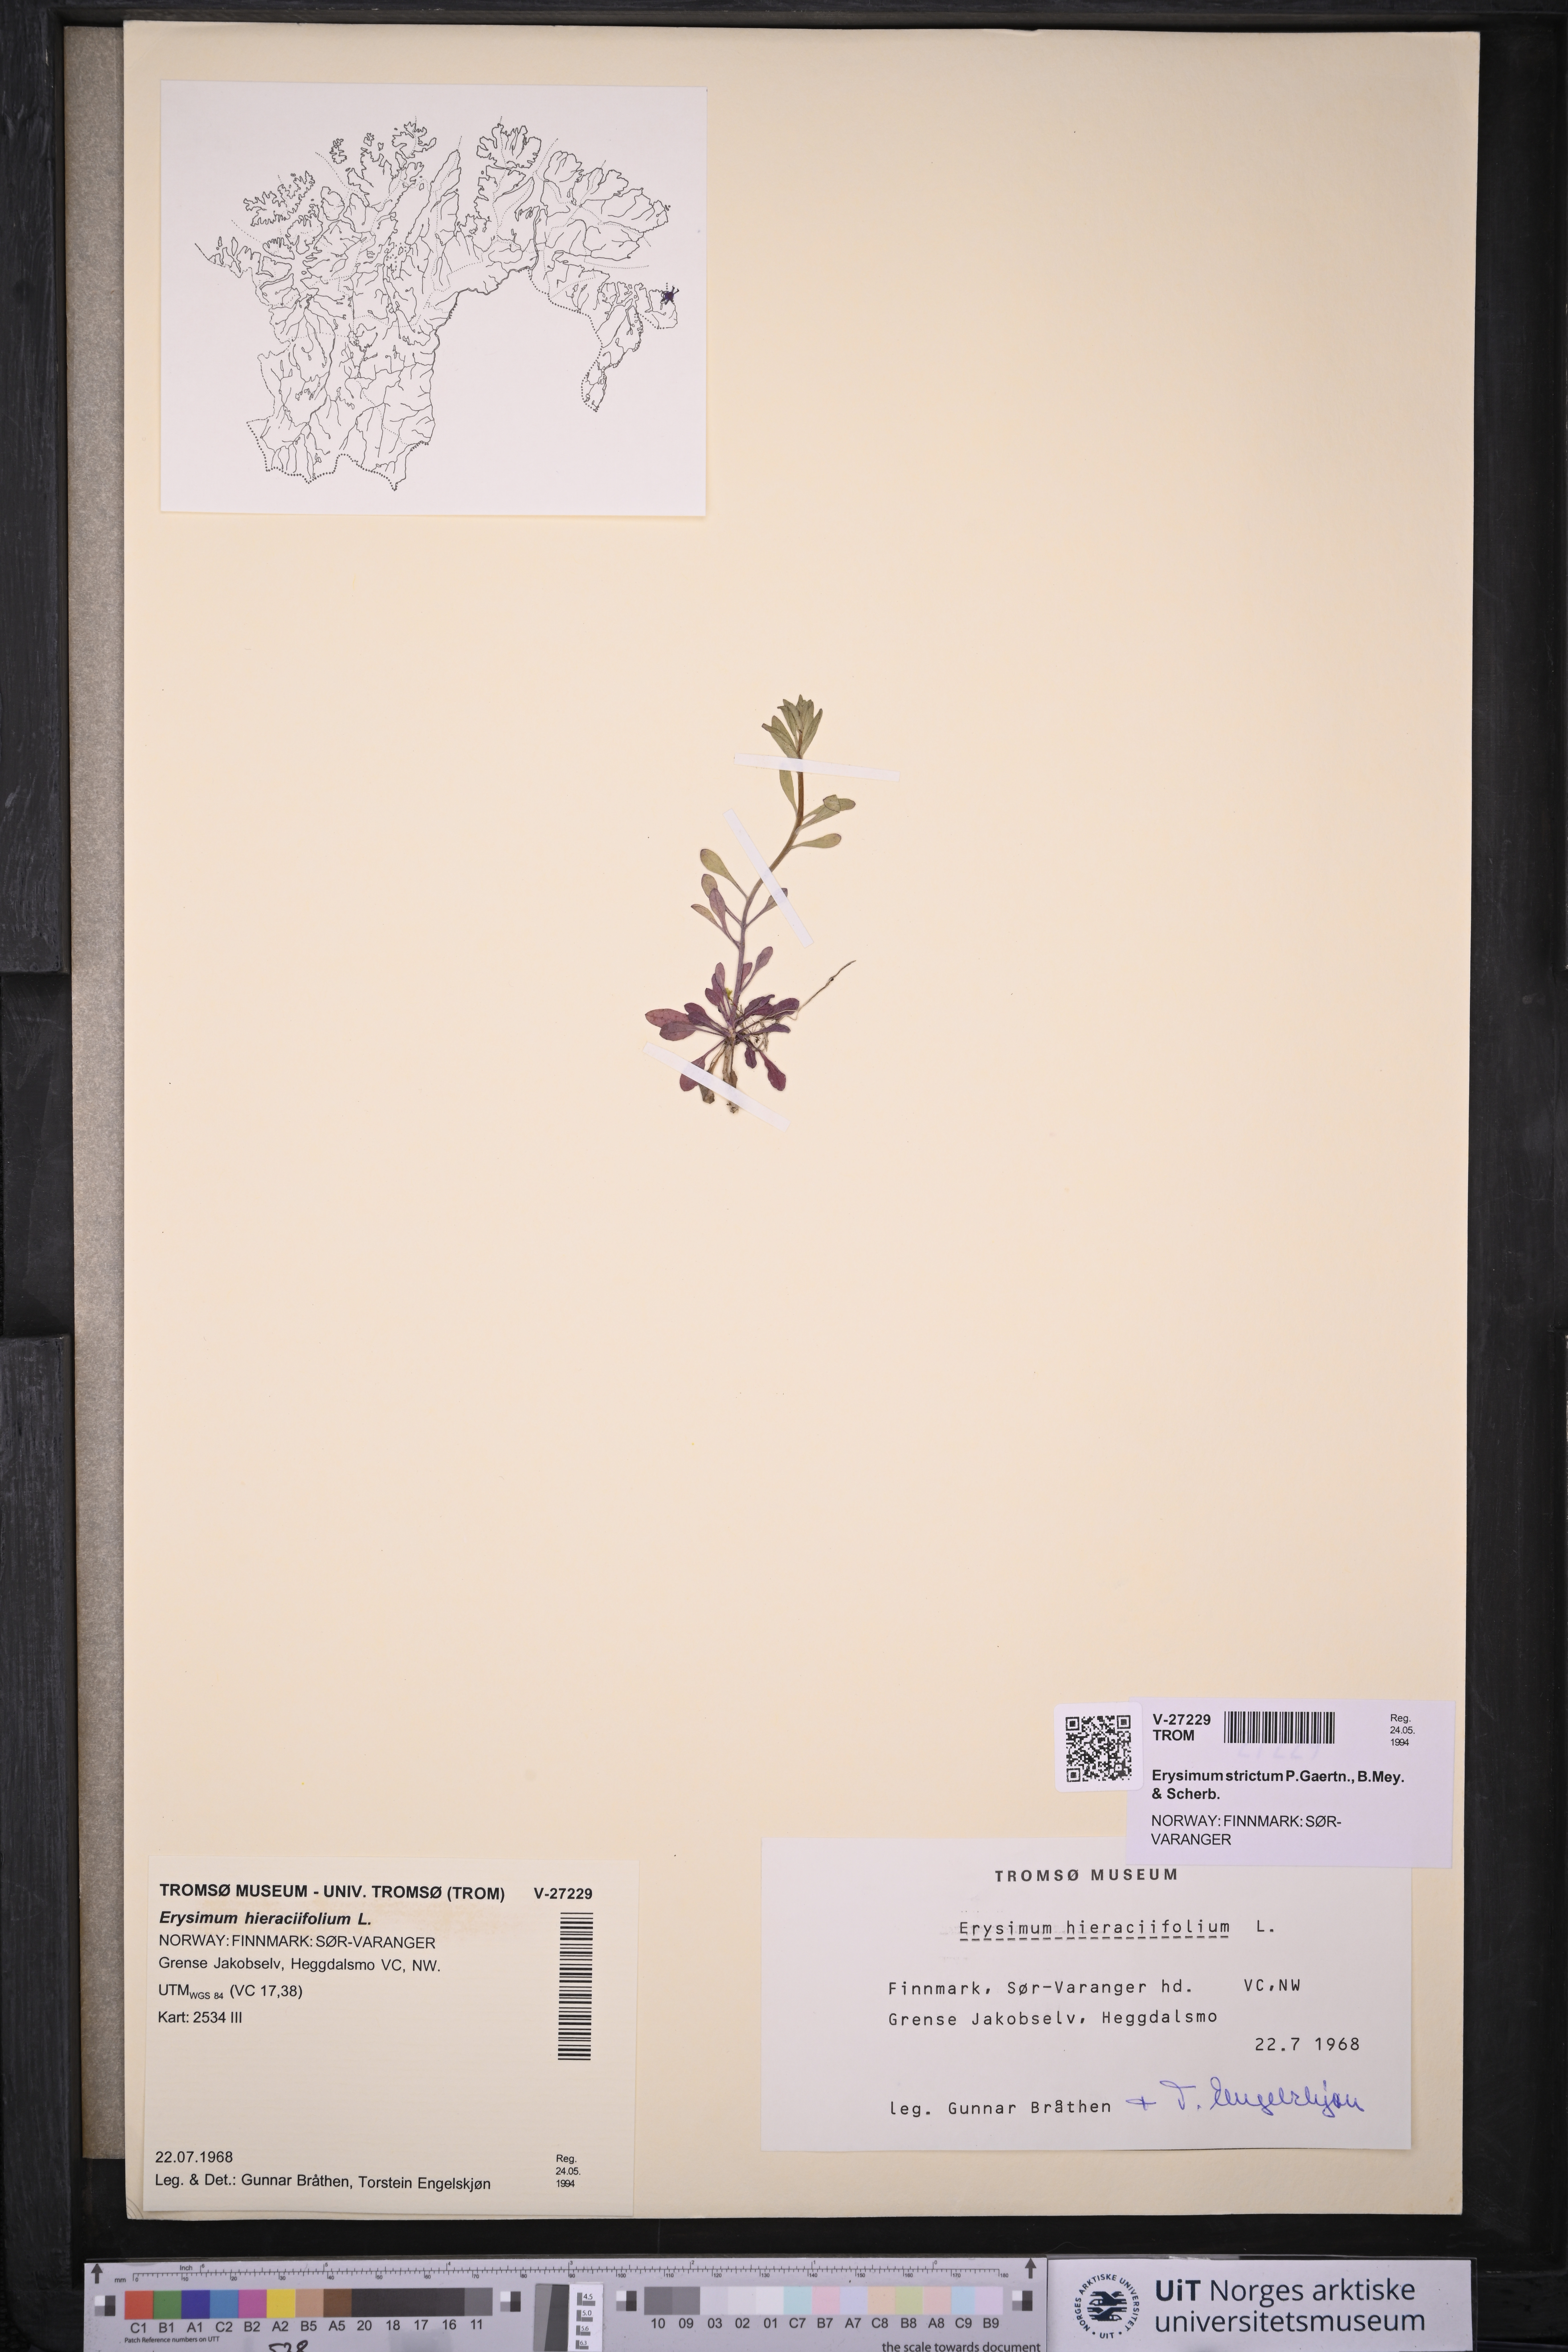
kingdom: Plantae
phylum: Tracheophyta
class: Magnoliopsida
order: Brassicales
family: Brassicaceae
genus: Erysimum
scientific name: Erysimum virgatum
